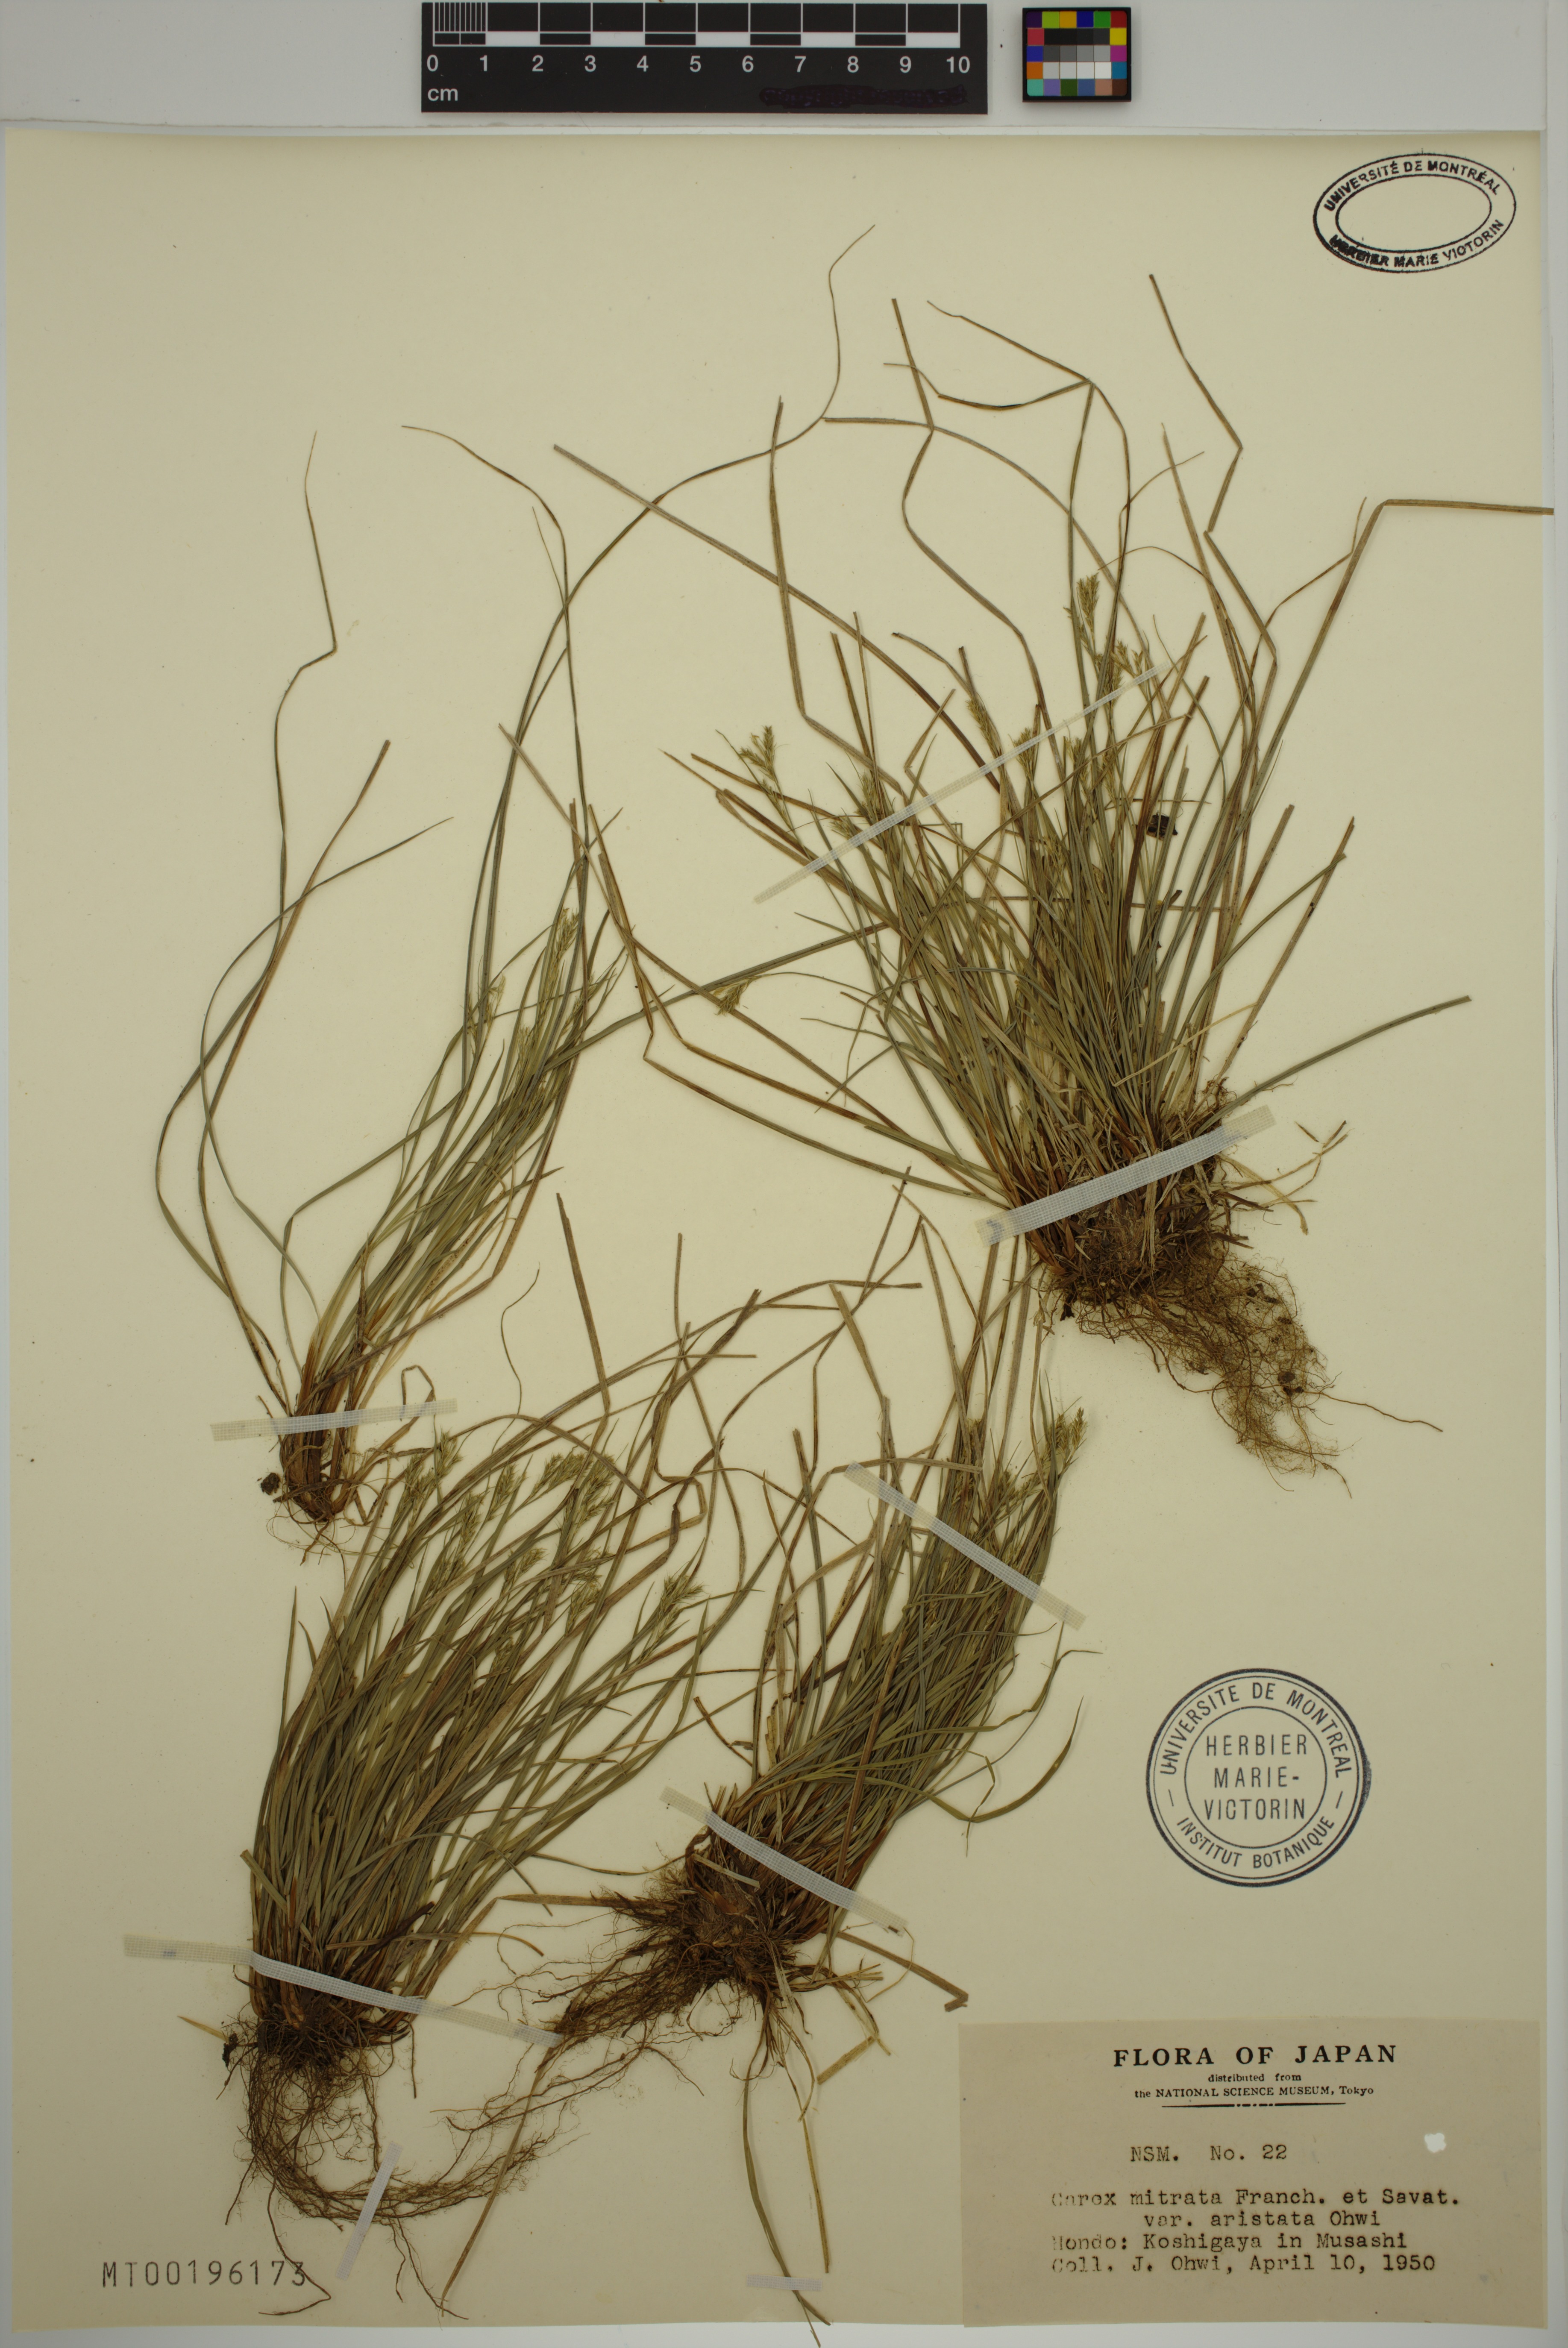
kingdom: Plantae
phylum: Tracheophyta
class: Liliopsida
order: Poales
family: Cyperaceae
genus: Carex
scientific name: Carex mitrata
